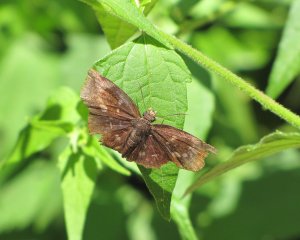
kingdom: Animalia
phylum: Arthropoda
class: Insecta
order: Lepidoptera
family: Hesperiidae
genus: Achlyodes
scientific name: Achlyodes thraso
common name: Sickle-winged Skipper
